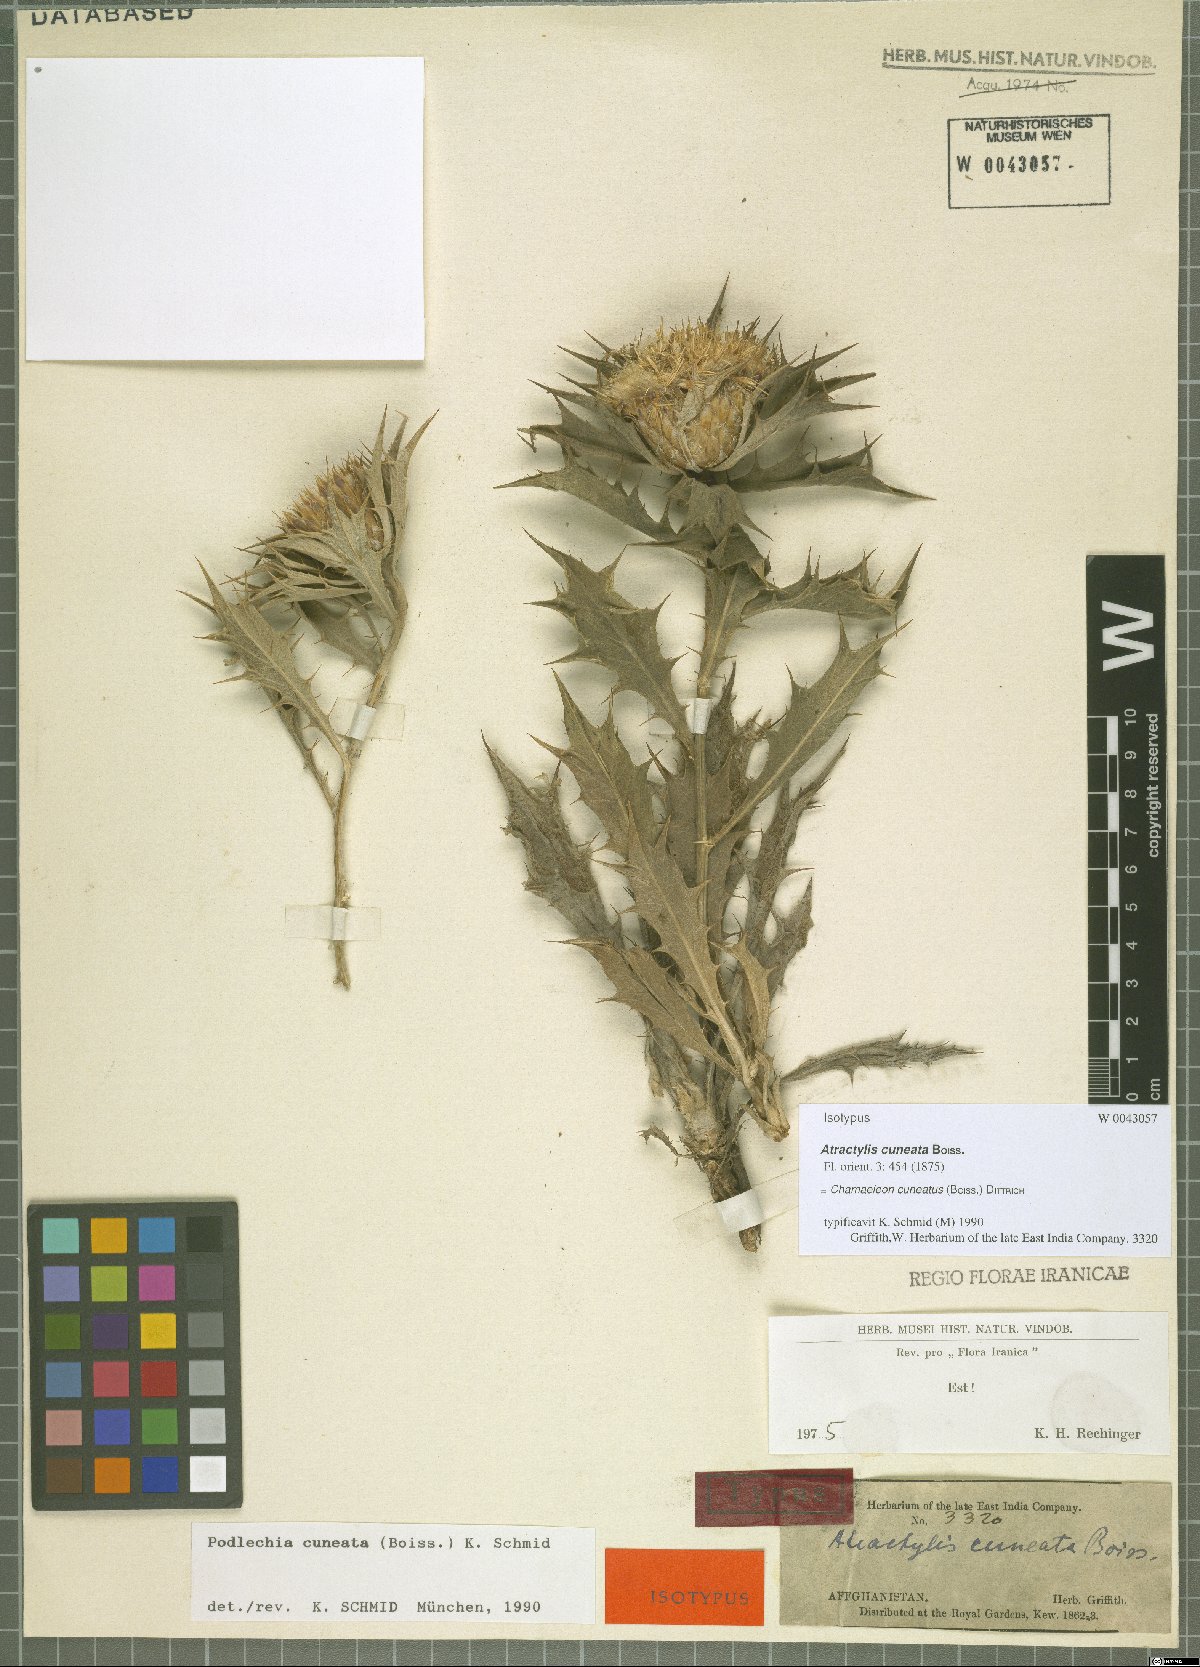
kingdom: Plantae
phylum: Tracheophyta
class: Magnoliopsida
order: Asterales
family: Asteraceae
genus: Chamaeleon
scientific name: Chamaeleon cuneatus
